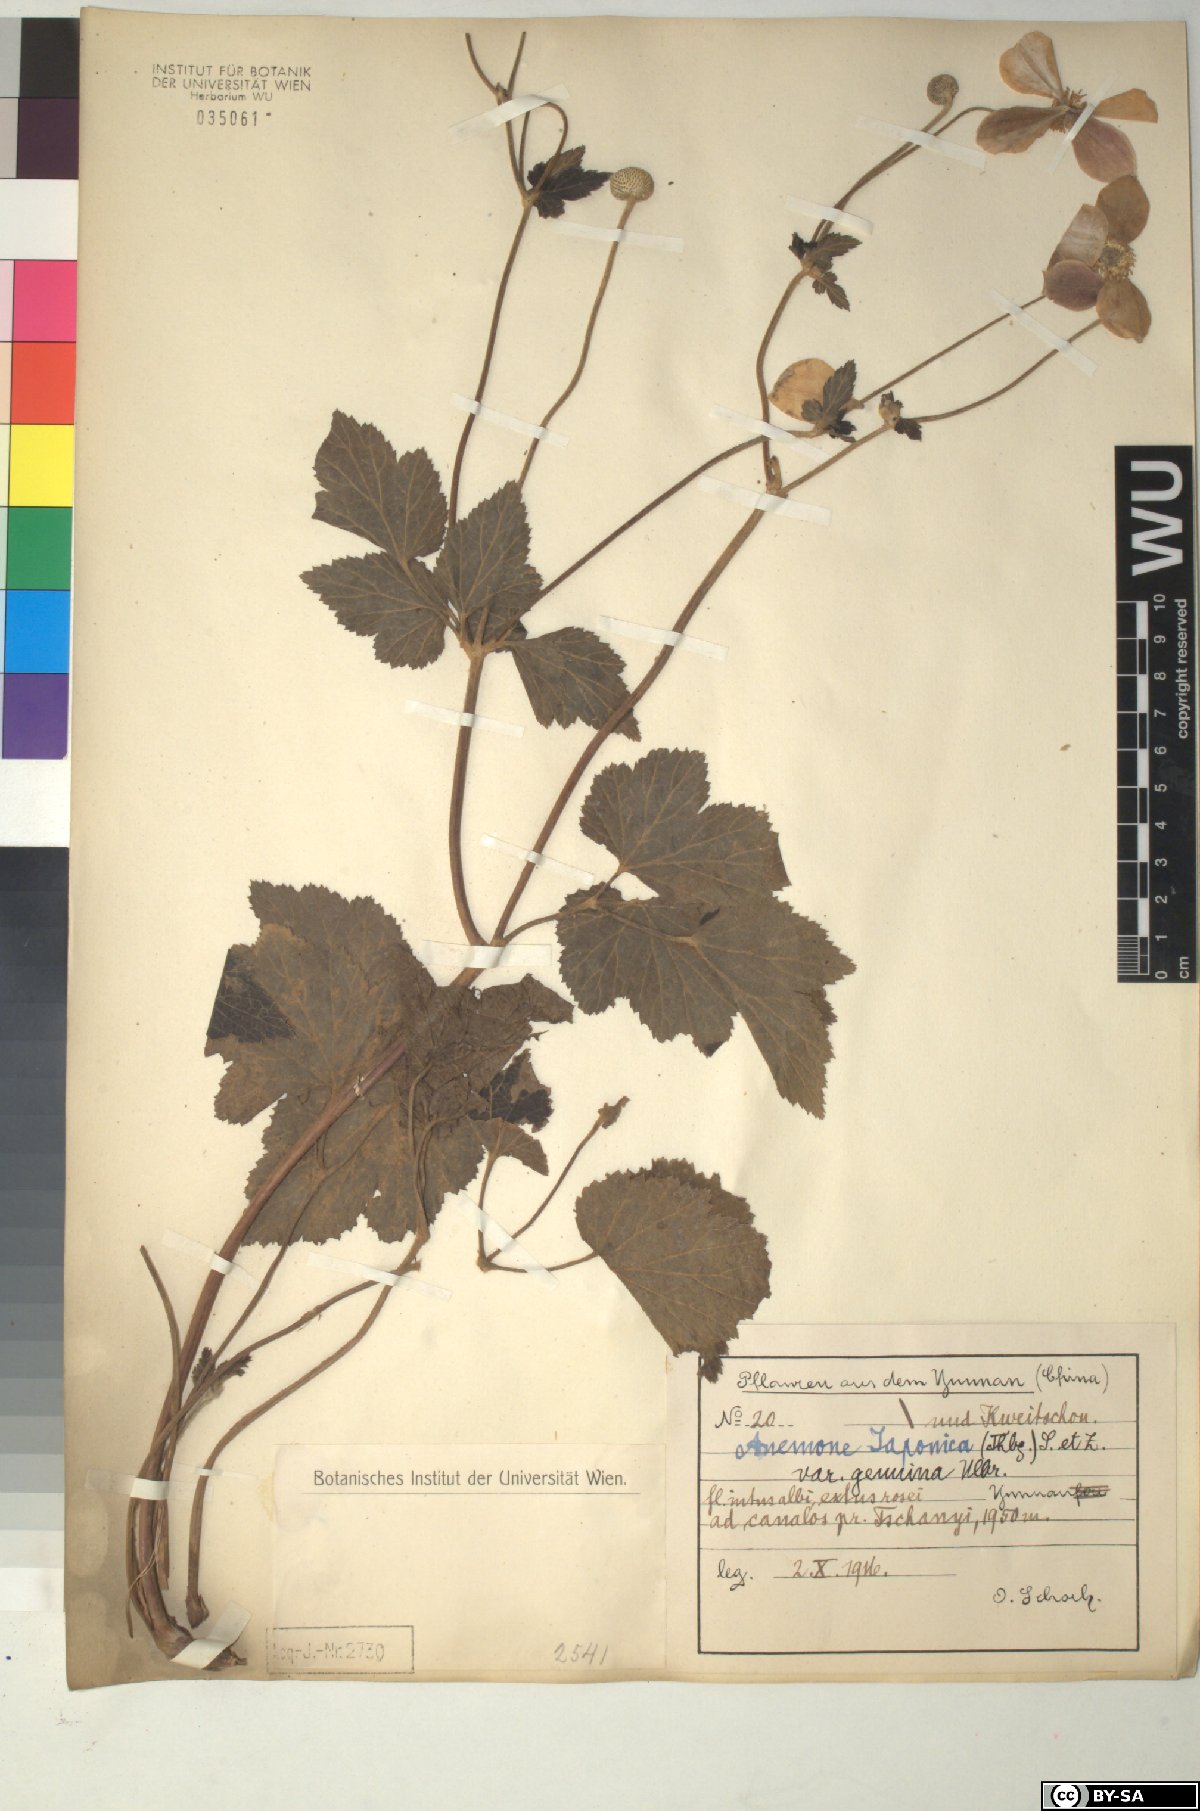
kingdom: Plantae
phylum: Tracheophyta
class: Magnoliopsida
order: Ranunculales
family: Ranunculaceae
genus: Eriocapitella
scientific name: Eriocapitella japonica
